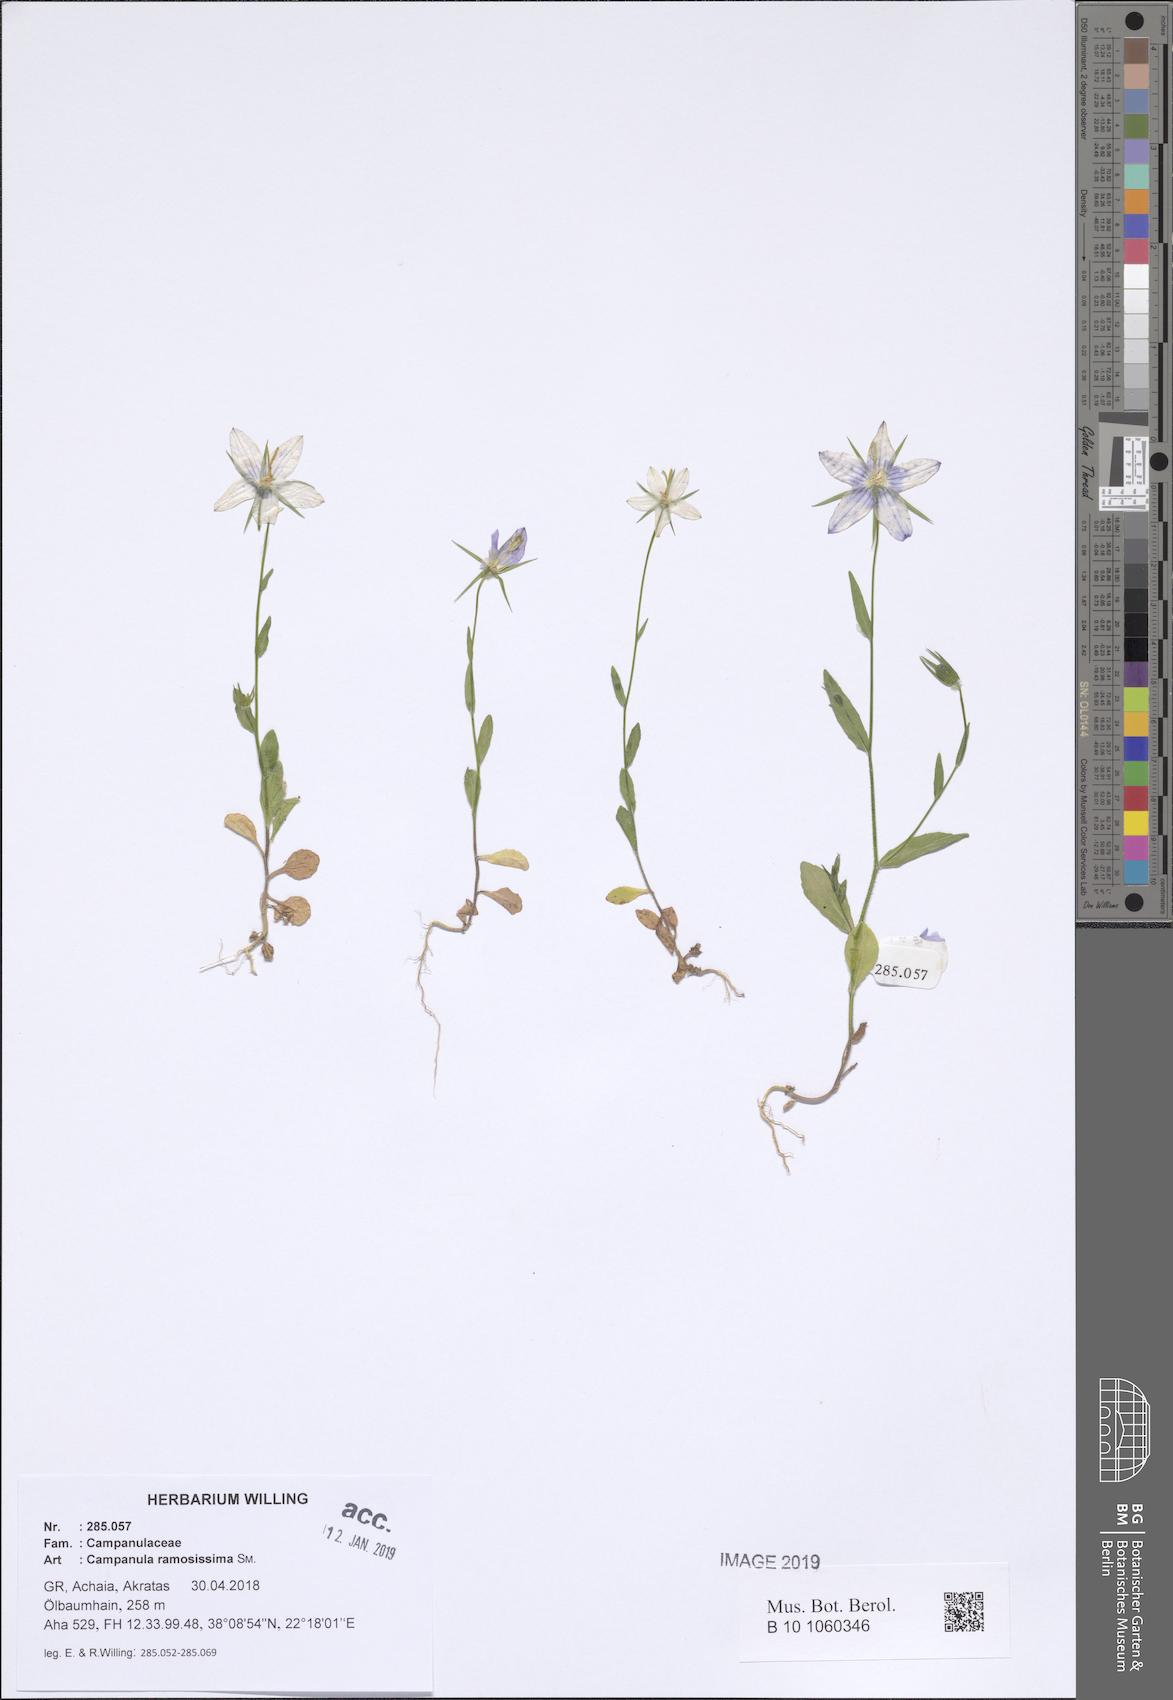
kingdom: Plantae
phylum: Tracheophyta
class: Magnoliopsida
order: Asterales
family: Campanulaceae
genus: Campanula
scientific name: Campanula ramosissima
